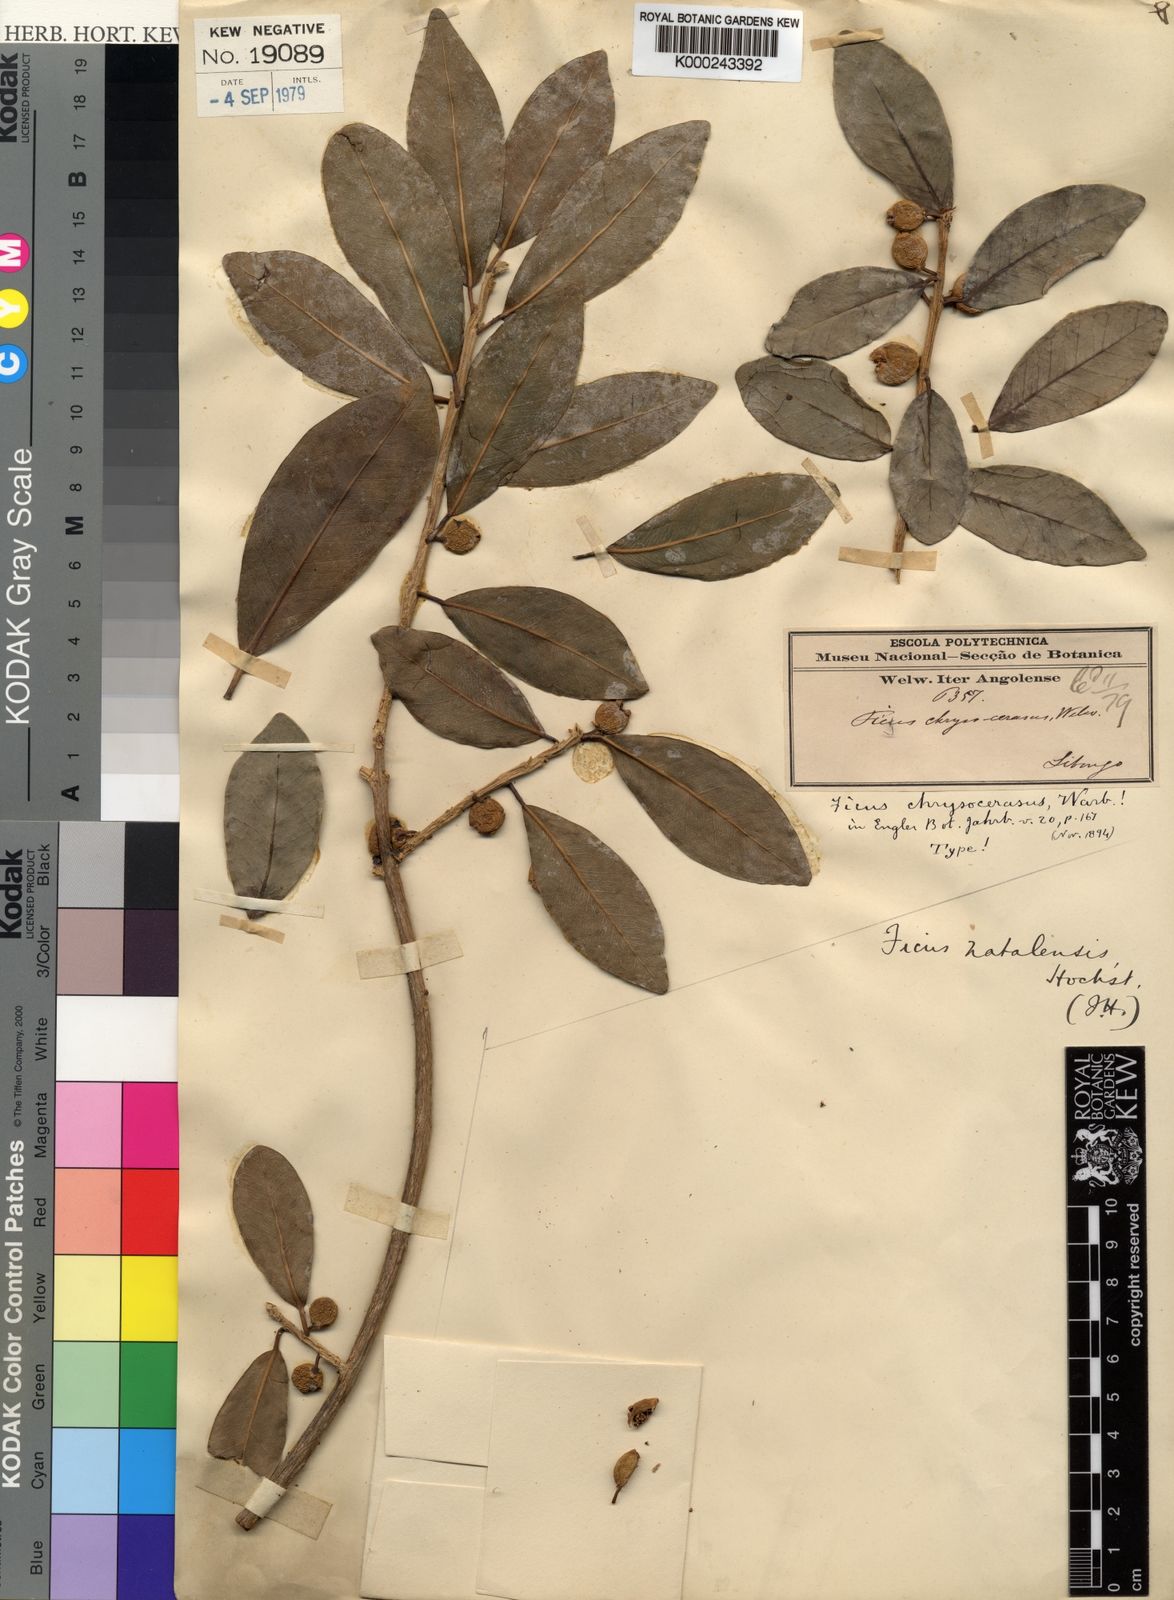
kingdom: Plantae
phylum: Tracheophyta
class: Magnoliopsida
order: Rosales
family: Moraceae
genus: Ficus
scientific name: Ficus natalensis
